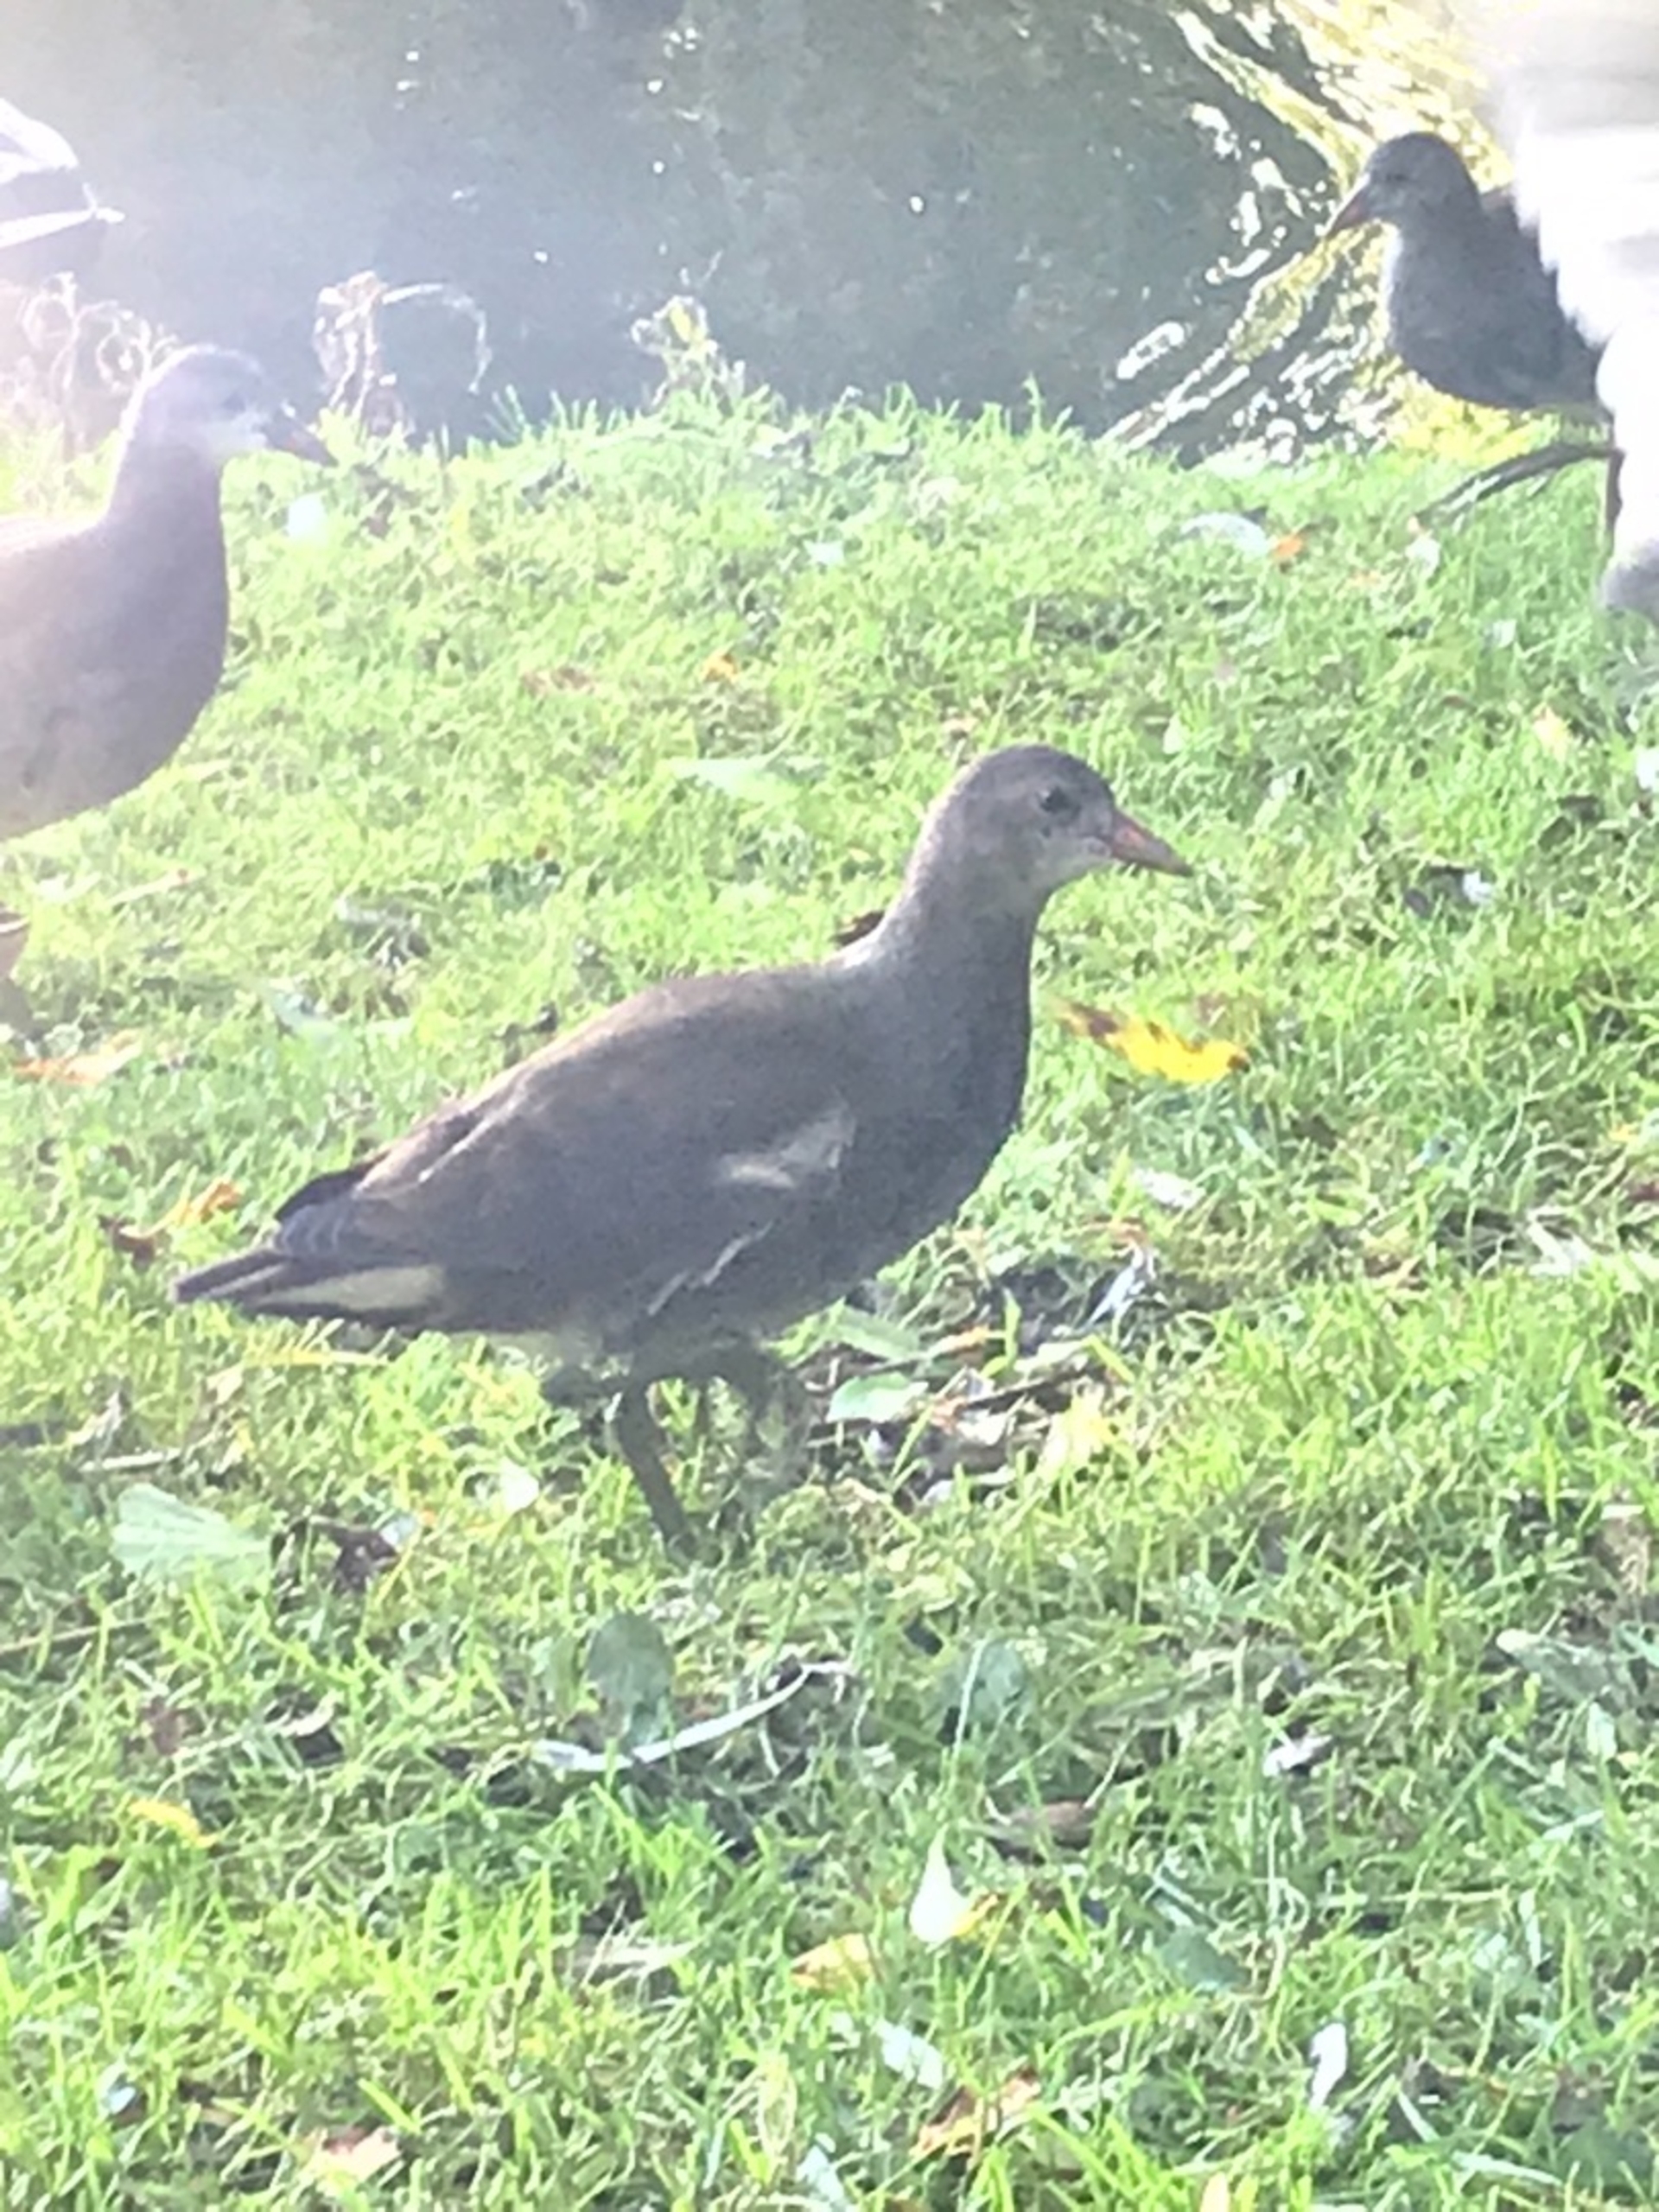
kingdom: Animalia
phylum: Chordata
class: Aves
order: Gruiformes
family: Rallidae
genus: Gallinula
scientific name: Gallinula chloropus
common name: Grønbenet rørhøne
